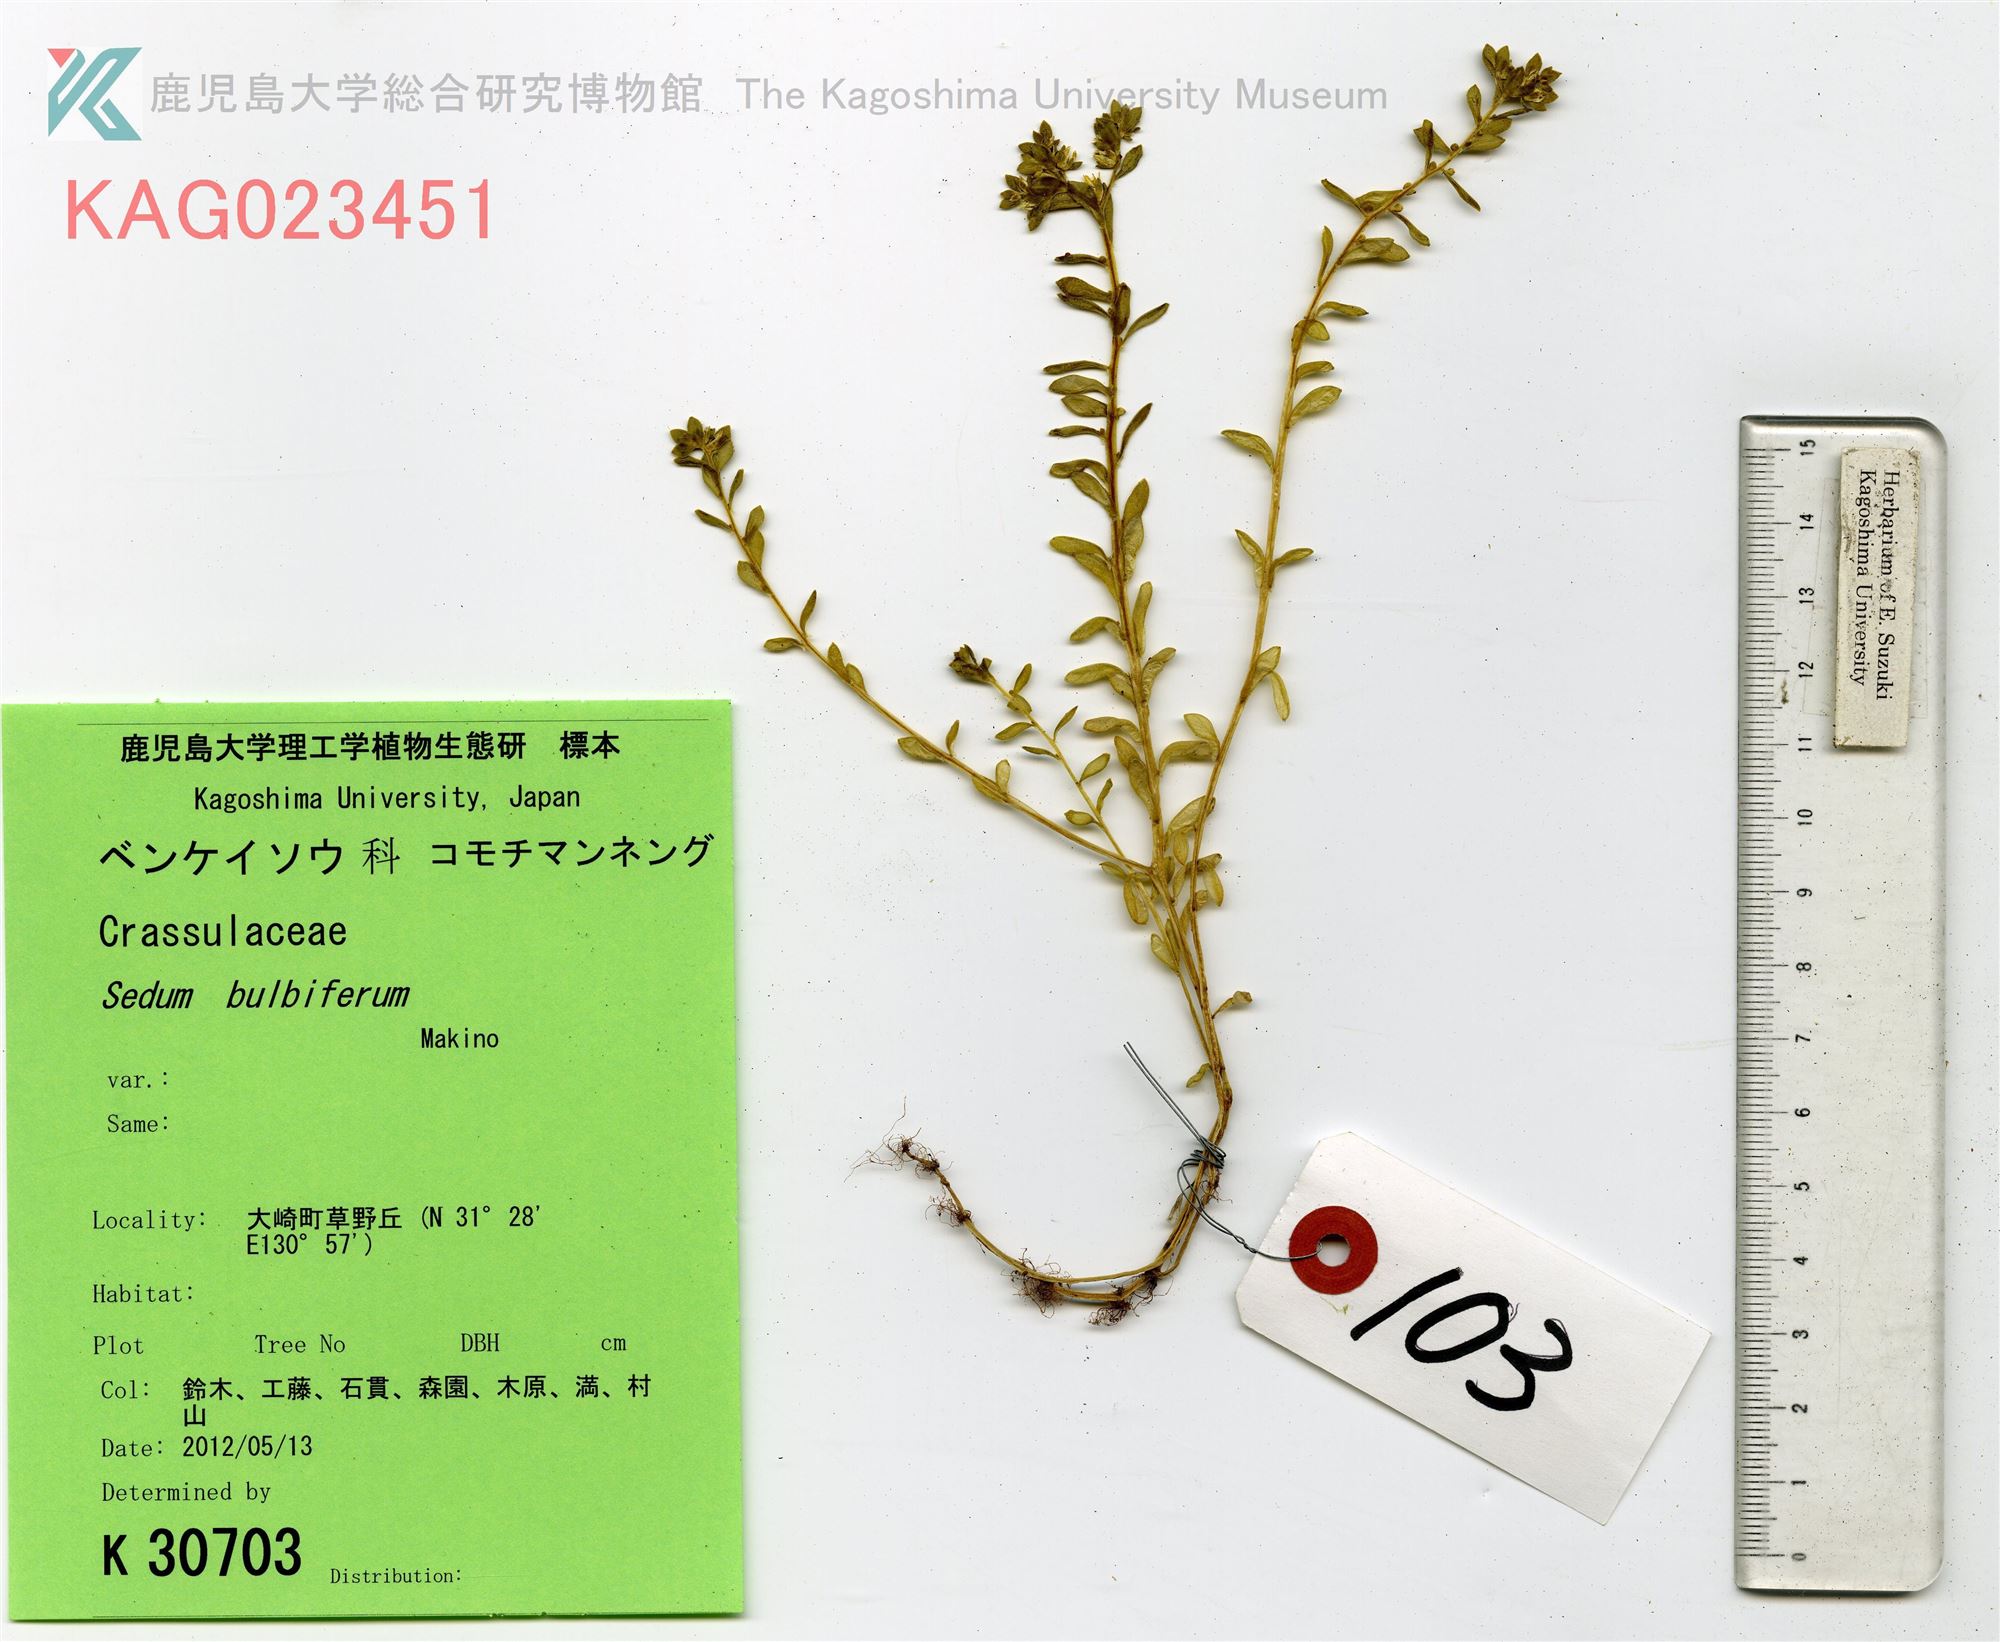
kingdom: Plantae
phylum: Tracheophyta
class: Magnoliopsida
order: Saxifragales
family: Crassulaceae
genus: Sedum
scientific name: Sedum bulbiferum
